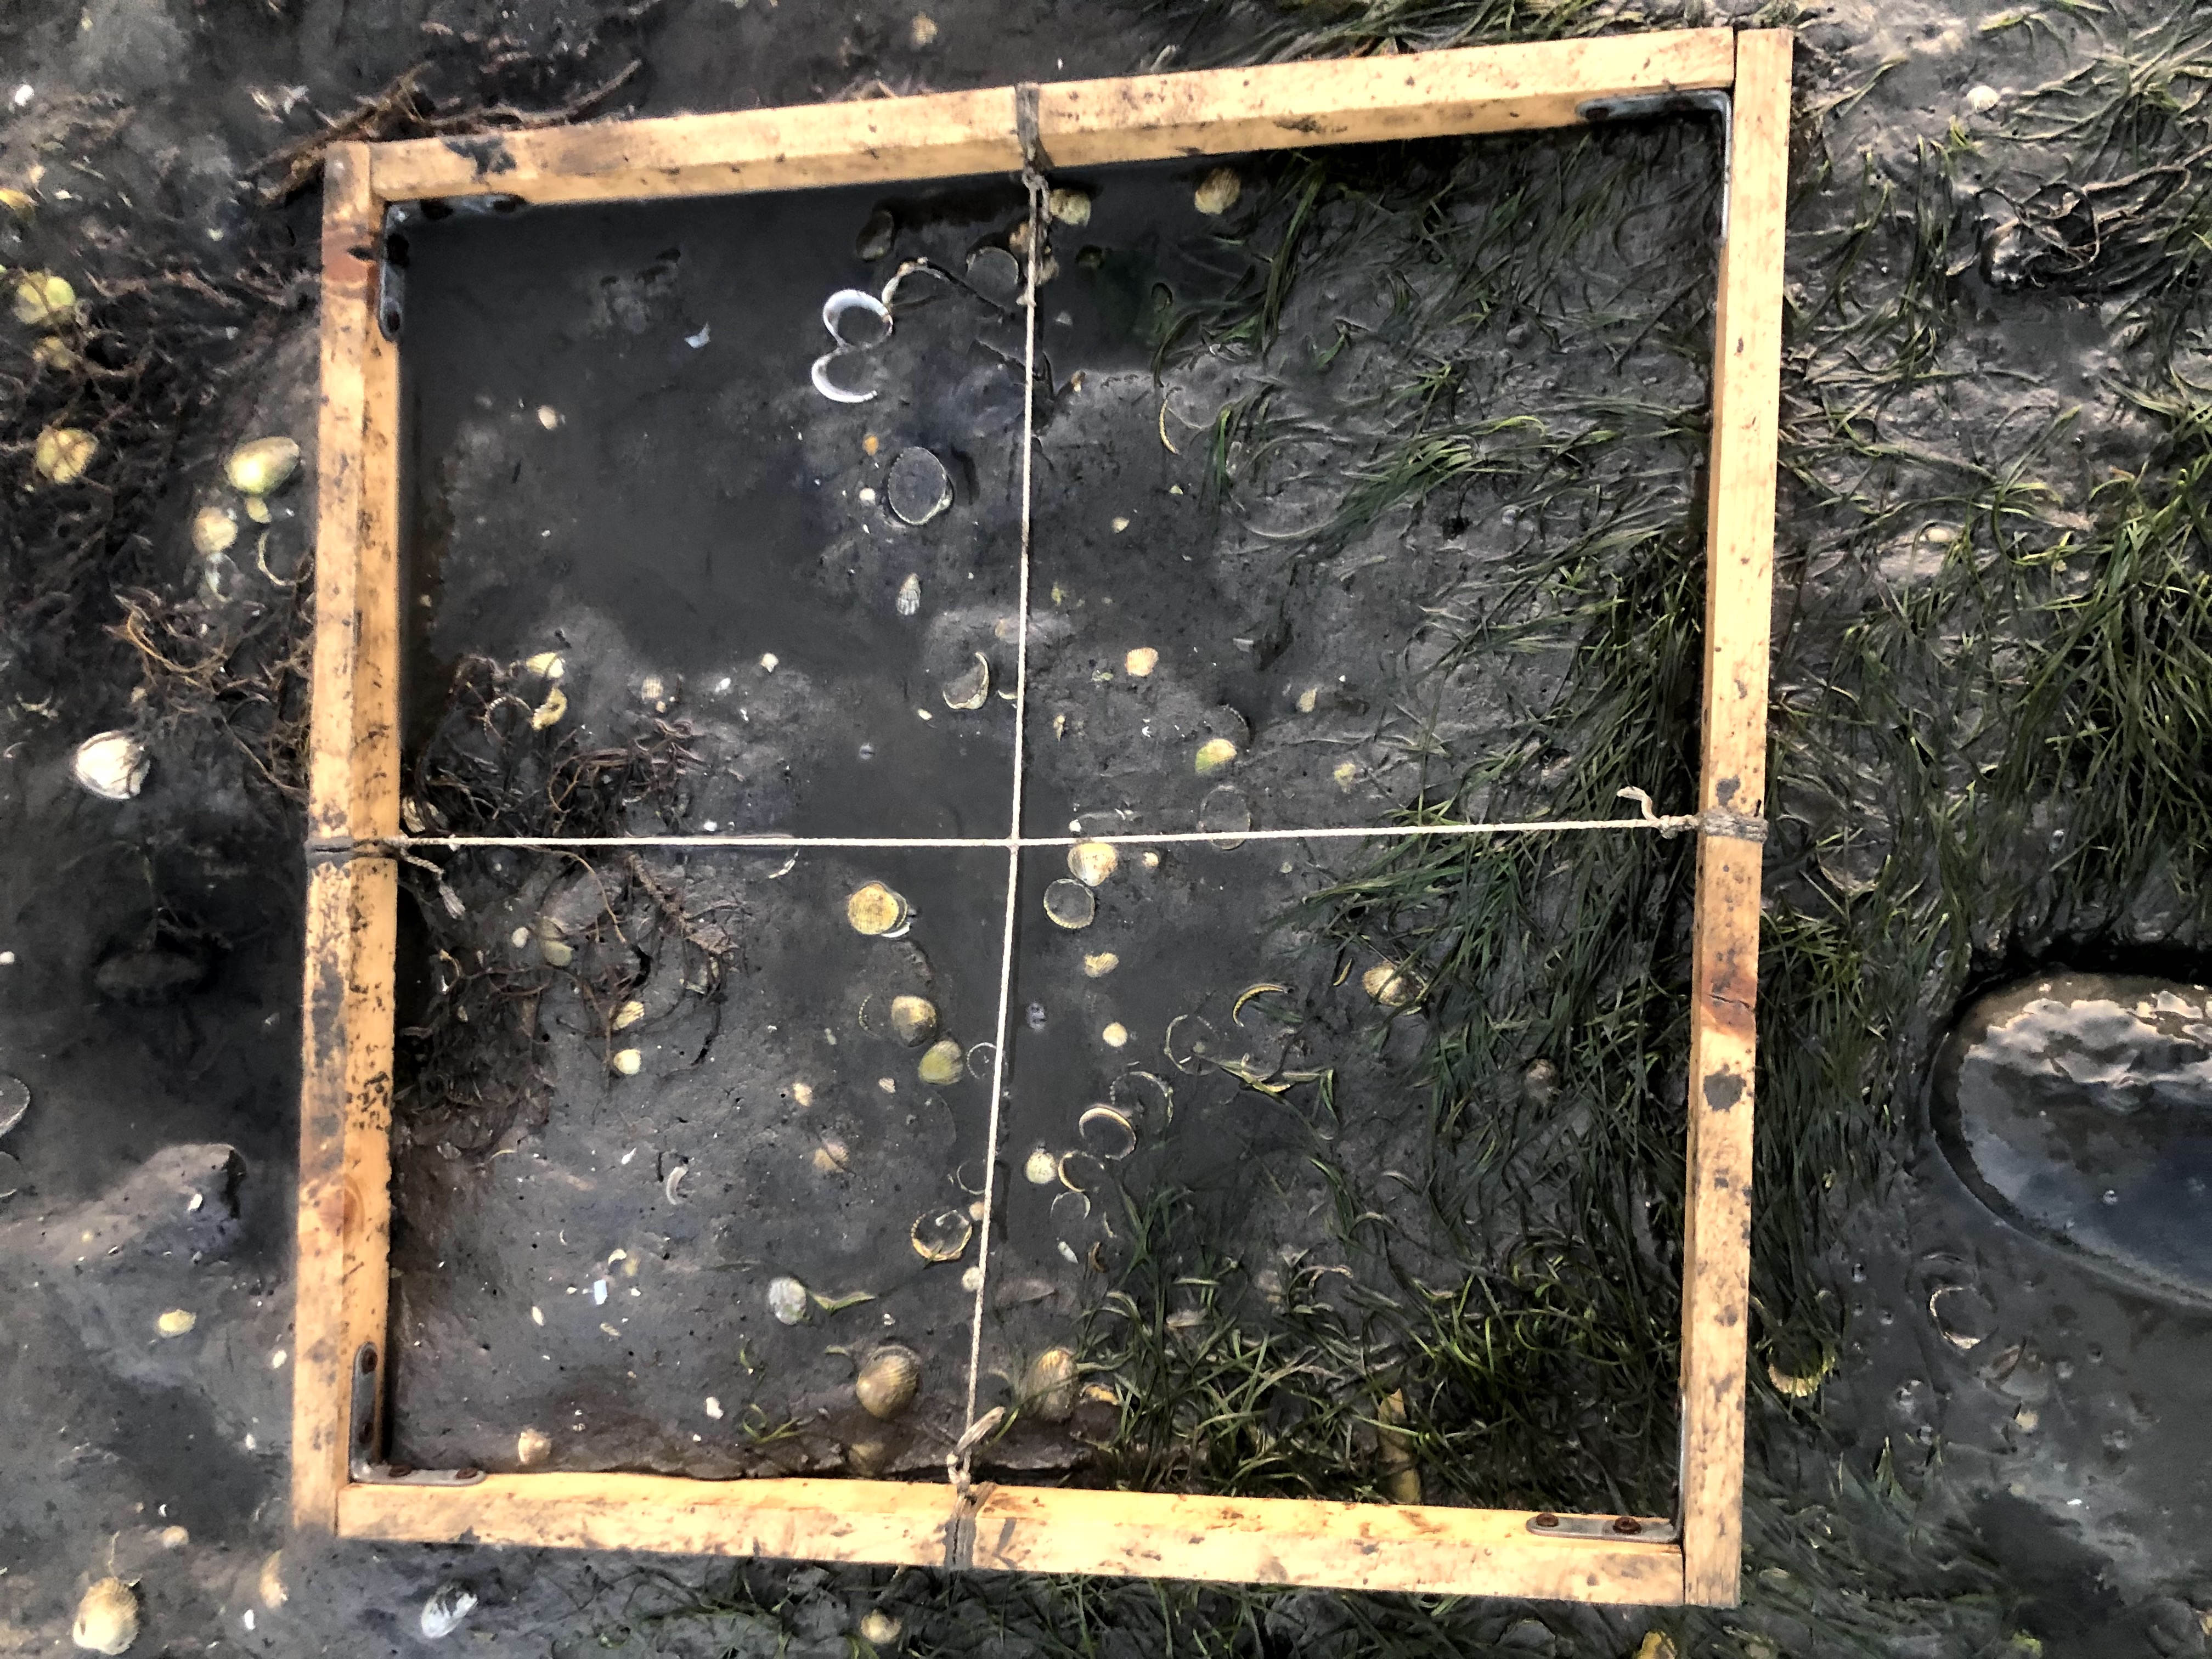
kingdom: Plantae
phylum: Tracheophyta
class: Liliopsida
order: Alismatales
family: Zosteraceae
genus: Zostera
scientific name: Zostera noltii
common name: Dwarf eelgrass
